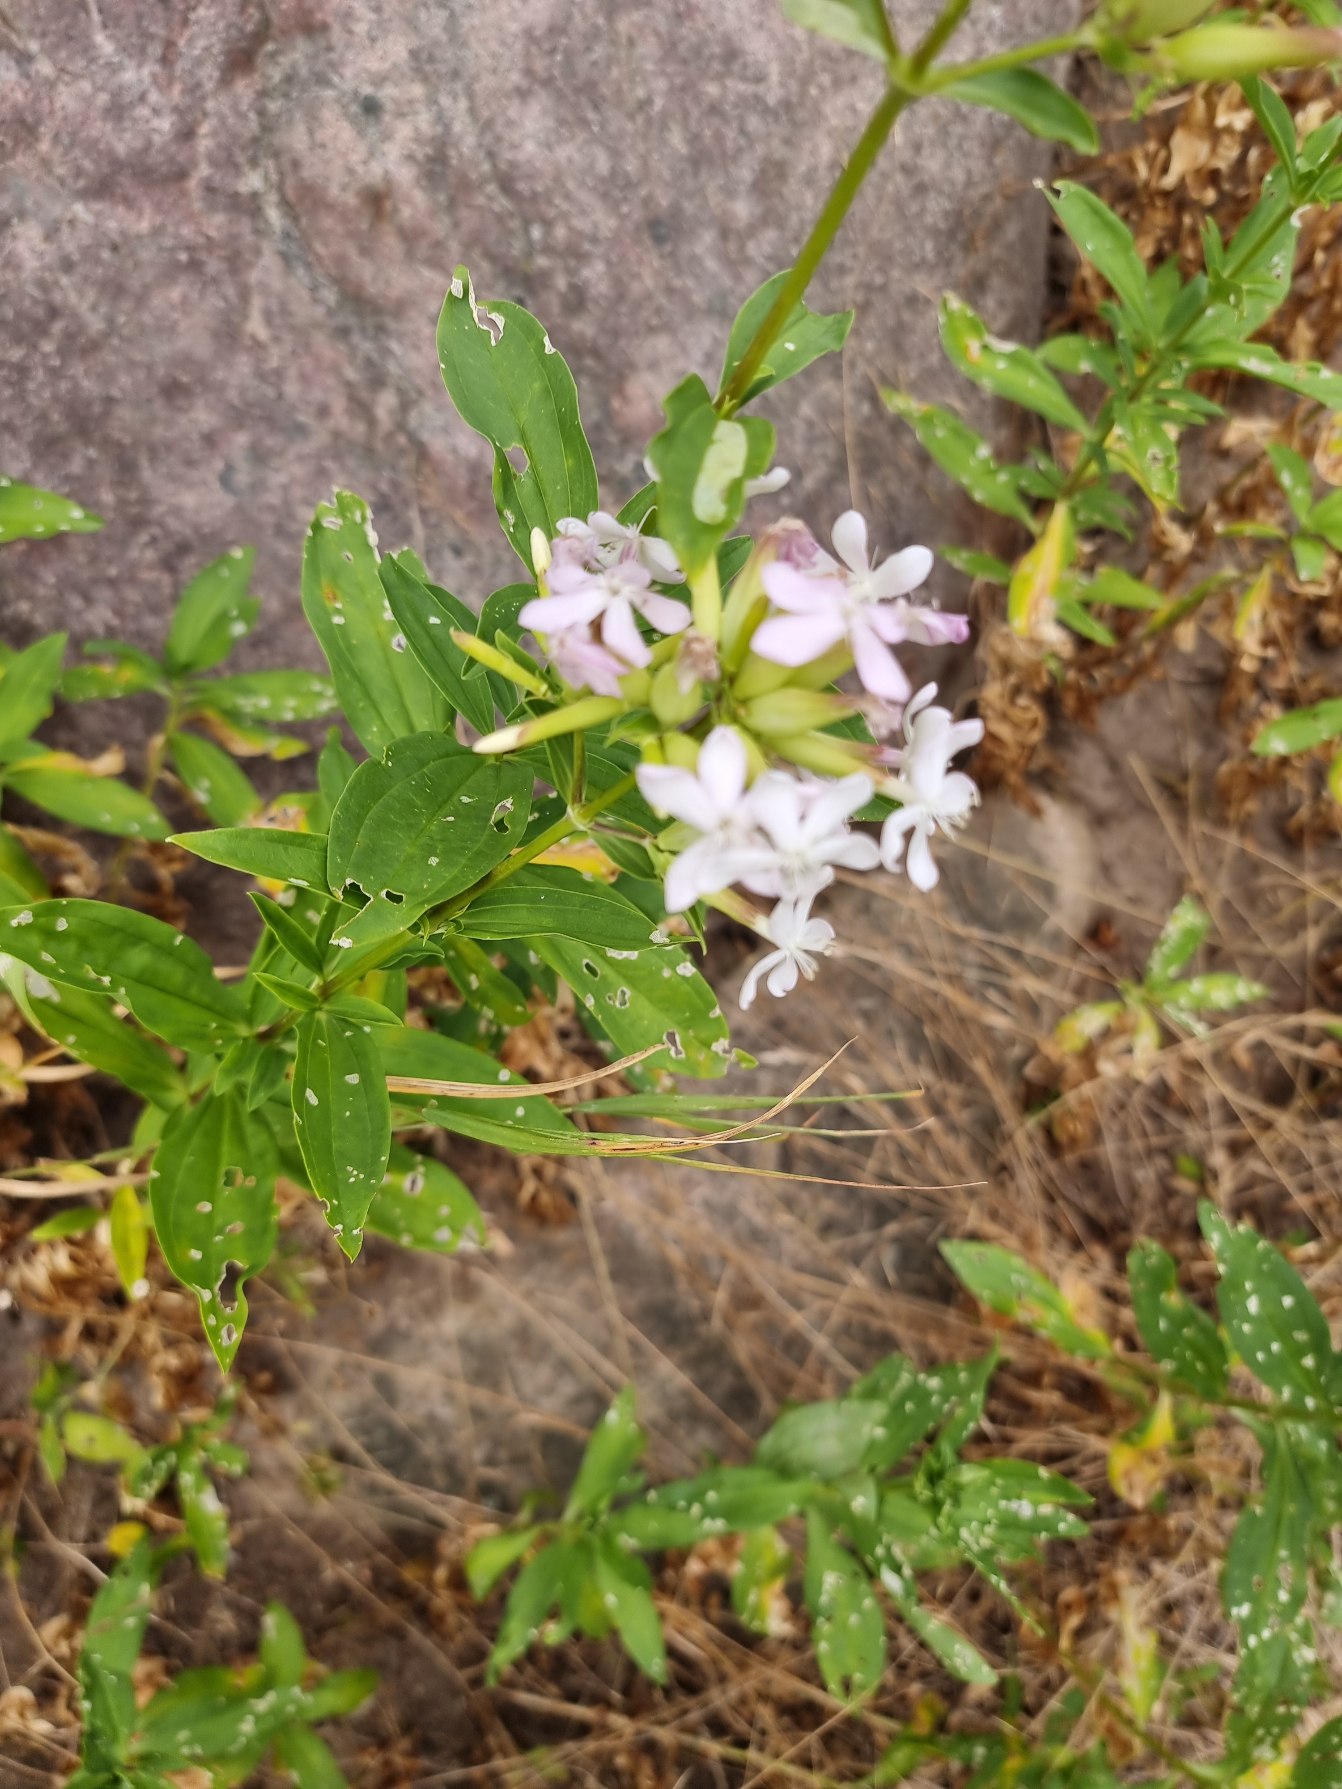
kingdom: Plantae
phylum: Tracheophyta
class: Magnoliopsida
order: Caryophyllales
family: Caryophyllaceae
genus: Saponaria
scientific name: Saponaria officinalis
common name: Sæbeurt
